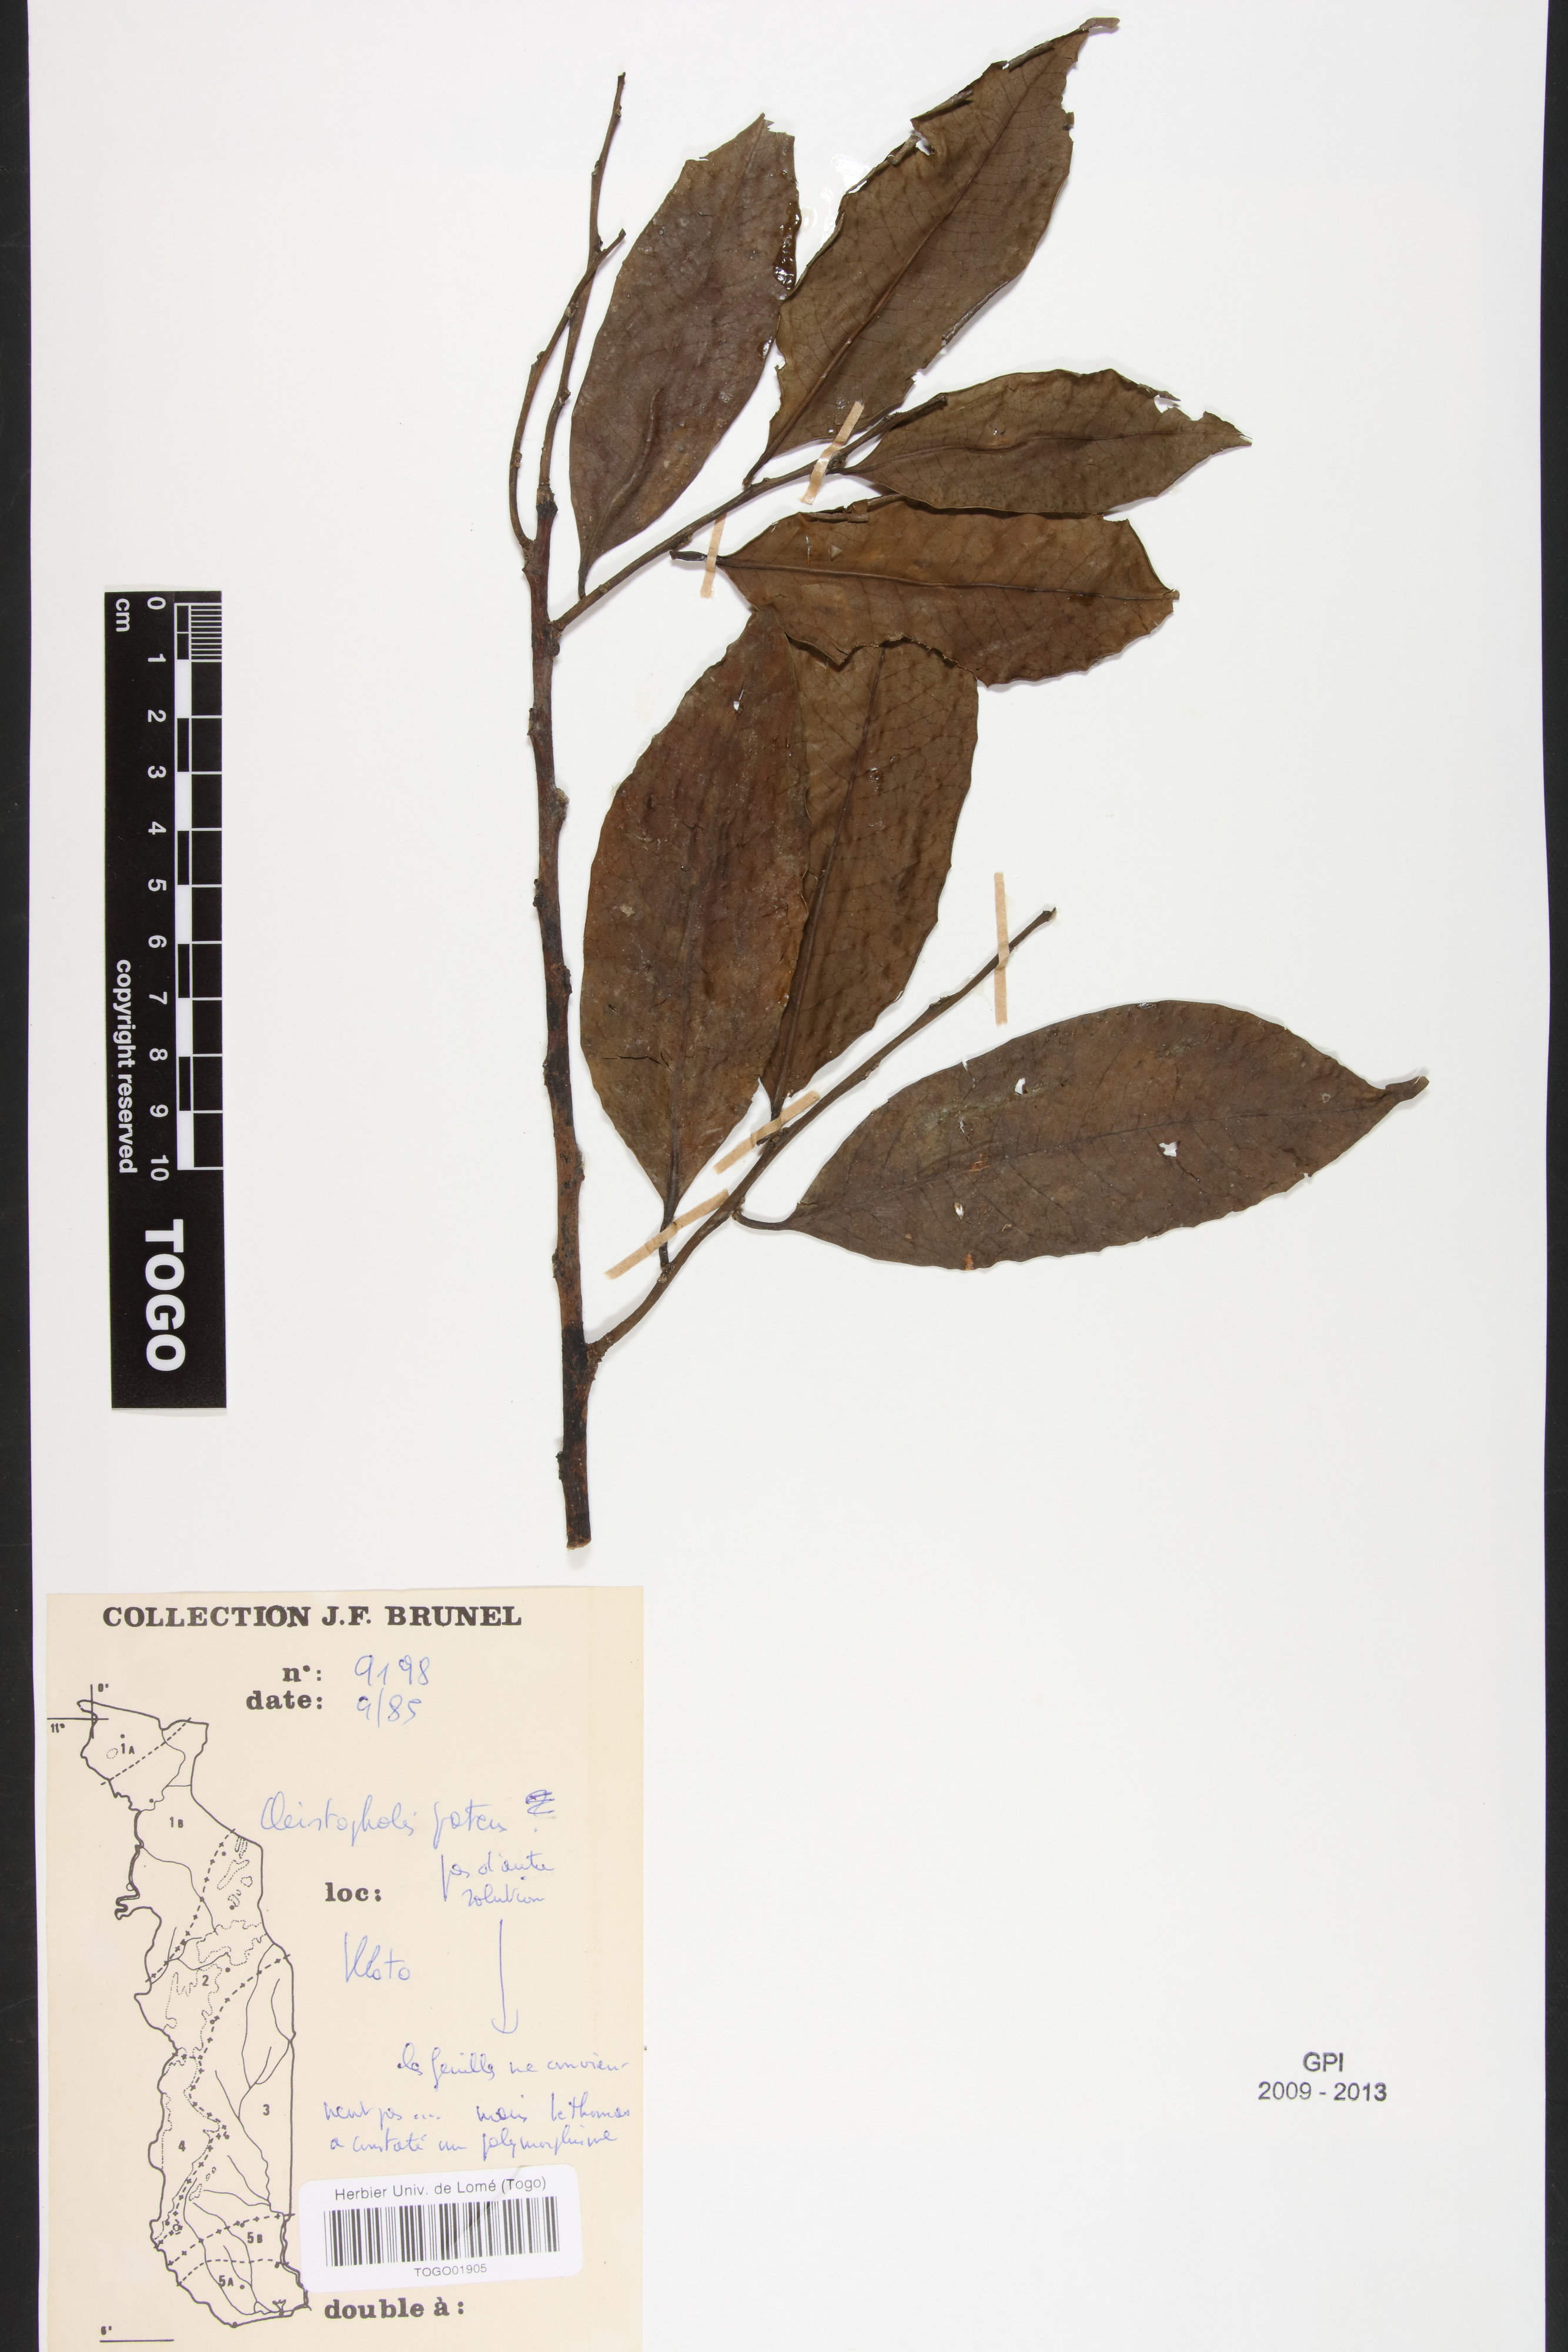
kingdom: Plantae
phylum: Tracheophyta
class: Magnoliopsida
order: Magnoliales
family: Annonaceae
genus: Cleistopholis
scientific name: Cleistopholis patens
